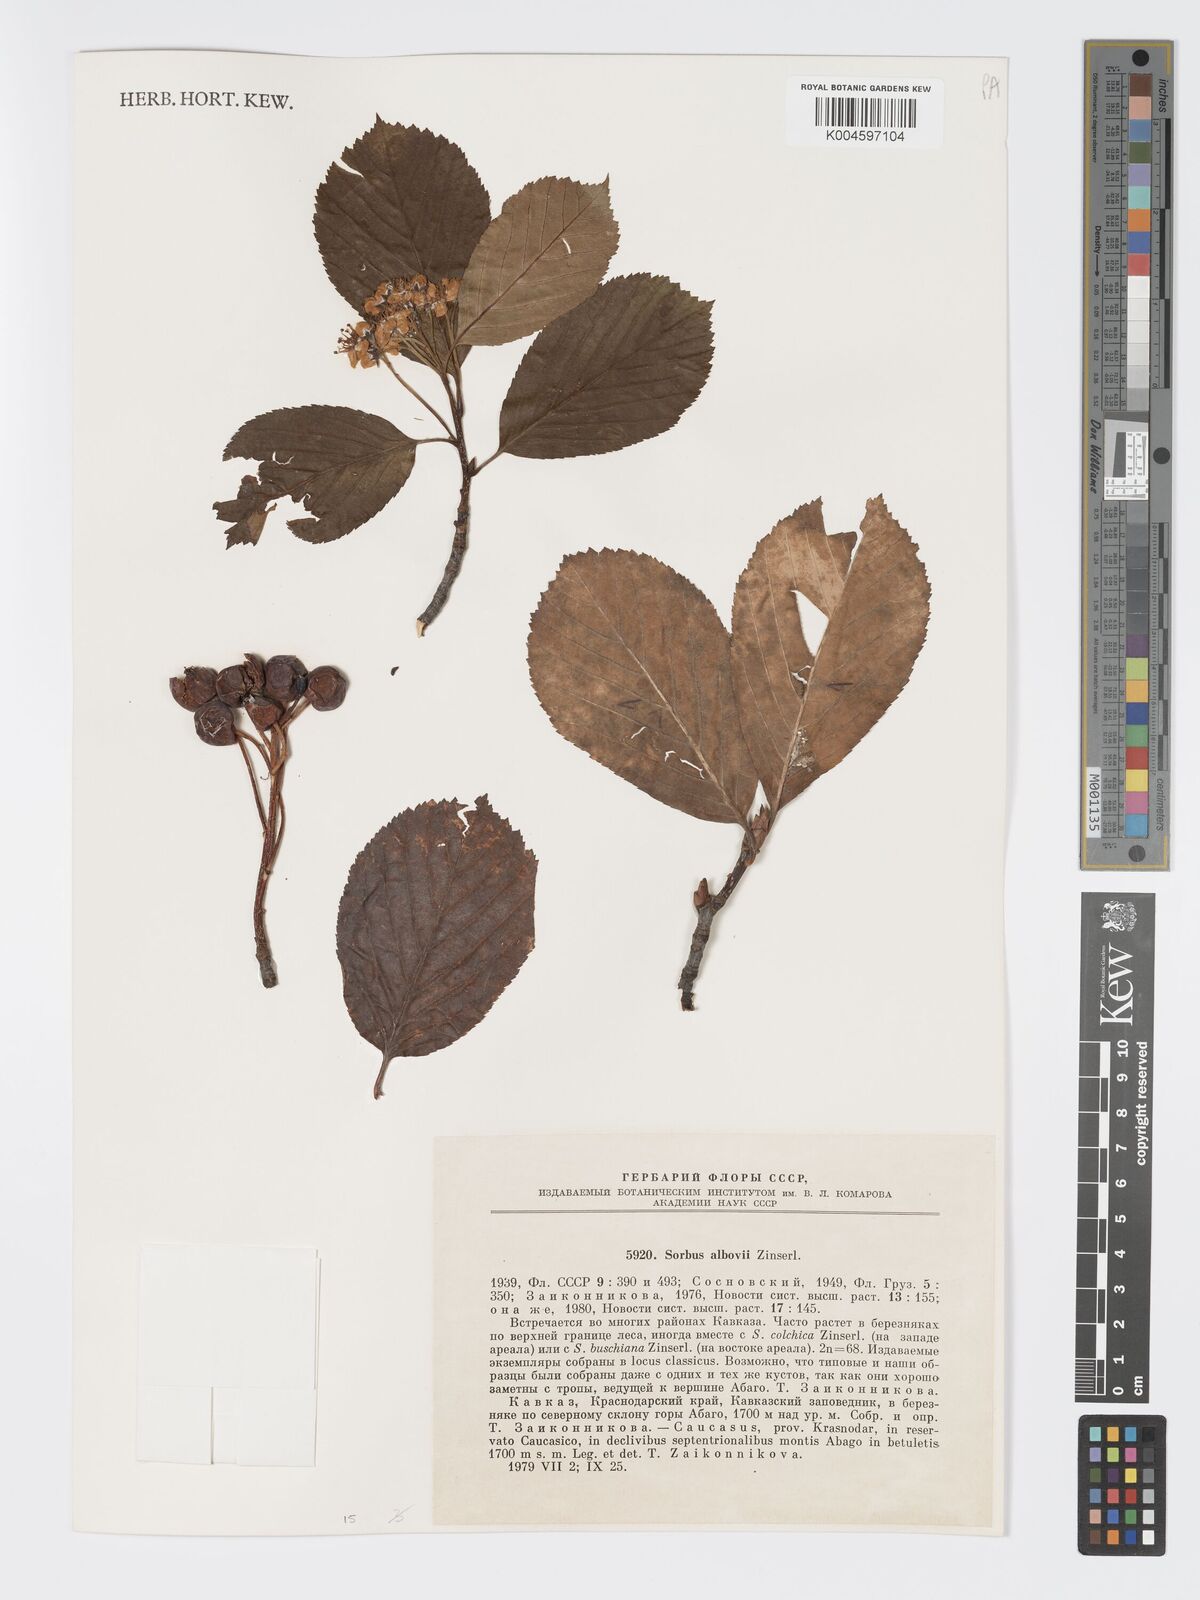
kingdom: Plantae
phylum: Tracheophyta
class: Magnoliopsida
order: Rosales
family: Rosaceae
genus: Sorbus
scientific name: Sorbus subfusca
